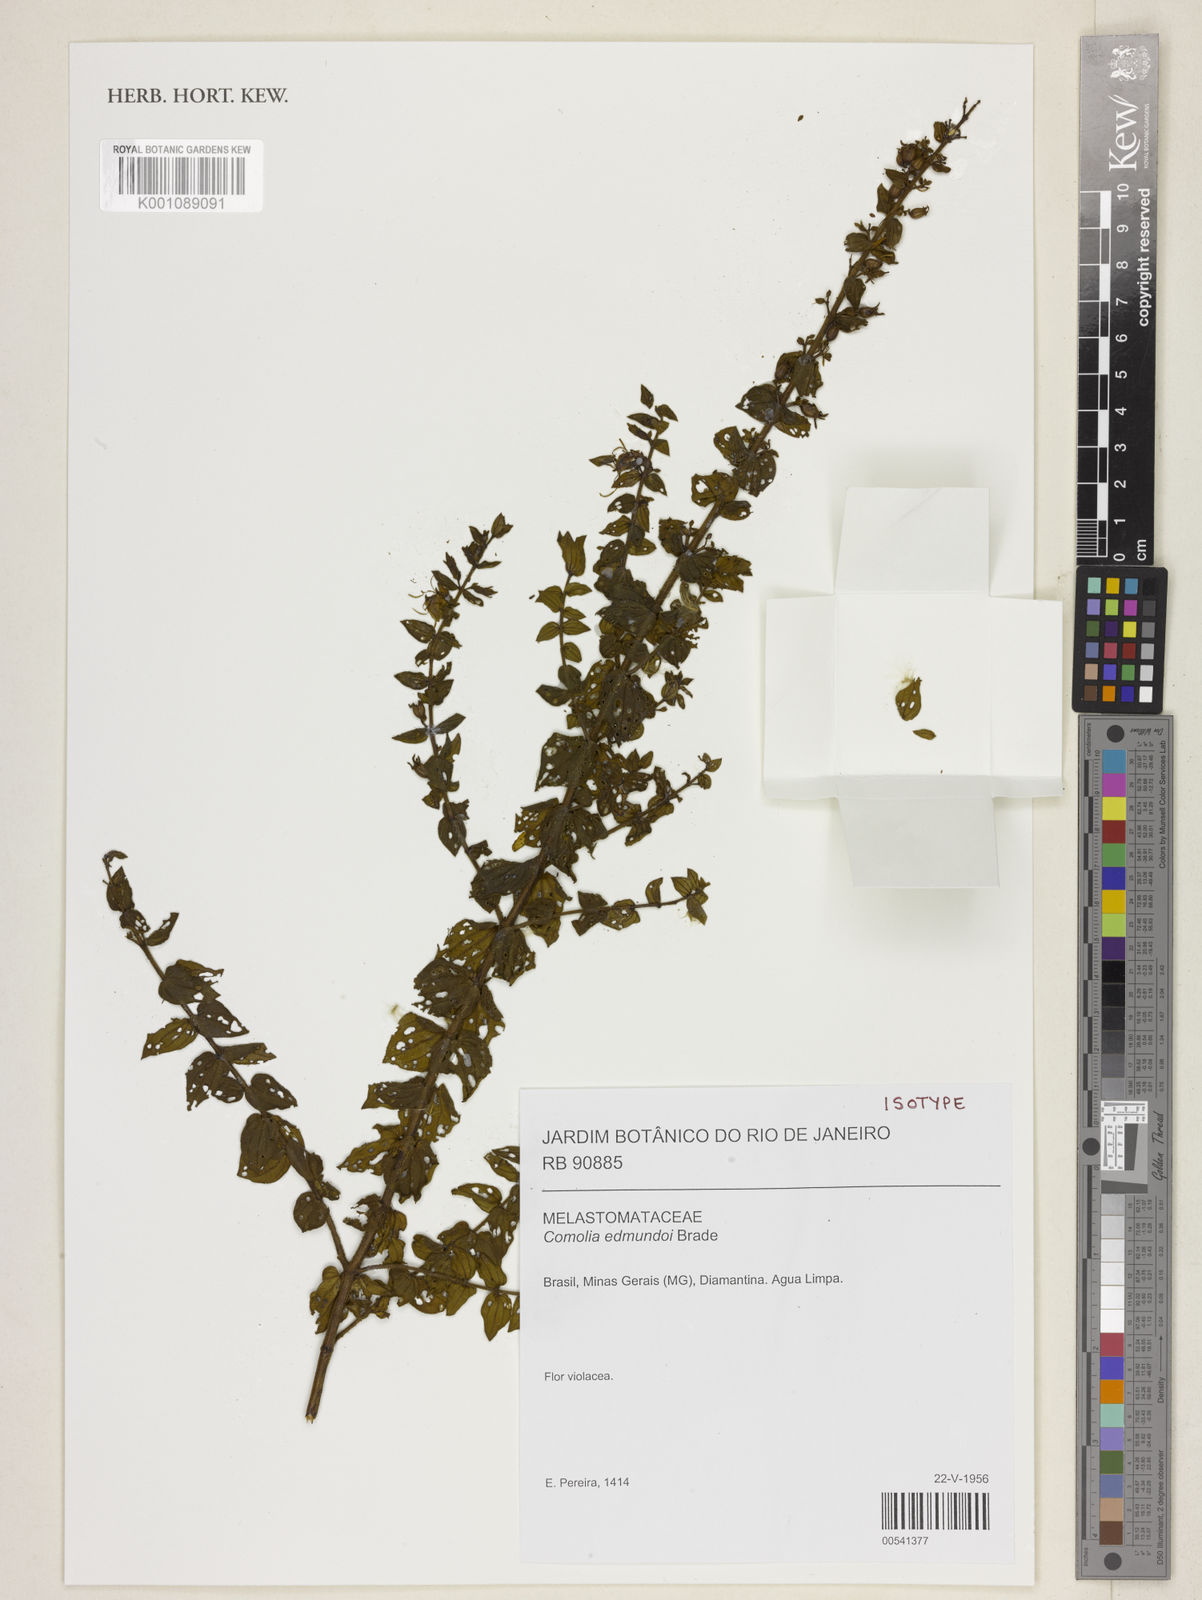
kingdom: Plantae
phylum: Tracheophyta
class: Magnoliopsida
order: Myrtales
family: Melastomataceae
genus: Fritzschia
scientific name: Fritzschia edmundoi
